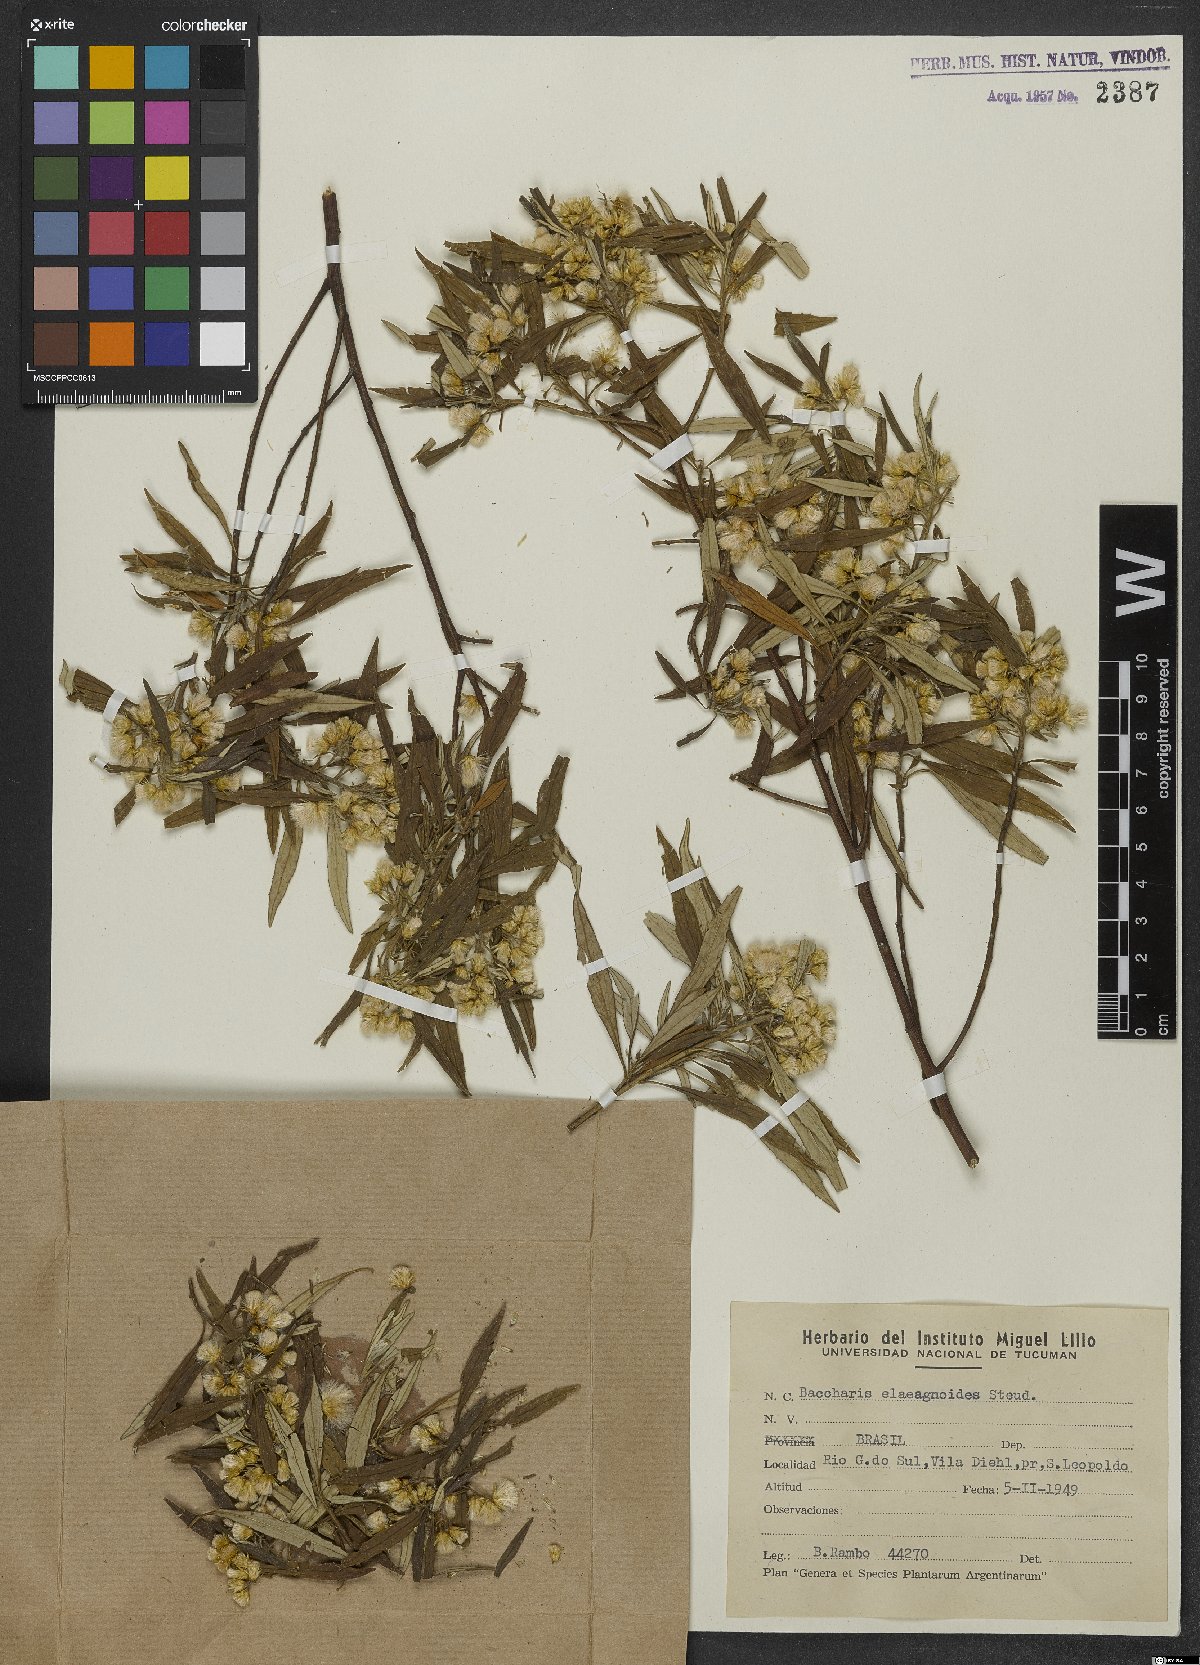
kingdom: Plantae
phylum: Tracheophyta
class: Magnoliopsida
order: Asterales
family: Asteraceae
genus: Baccharis
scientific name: Baccharis montana
